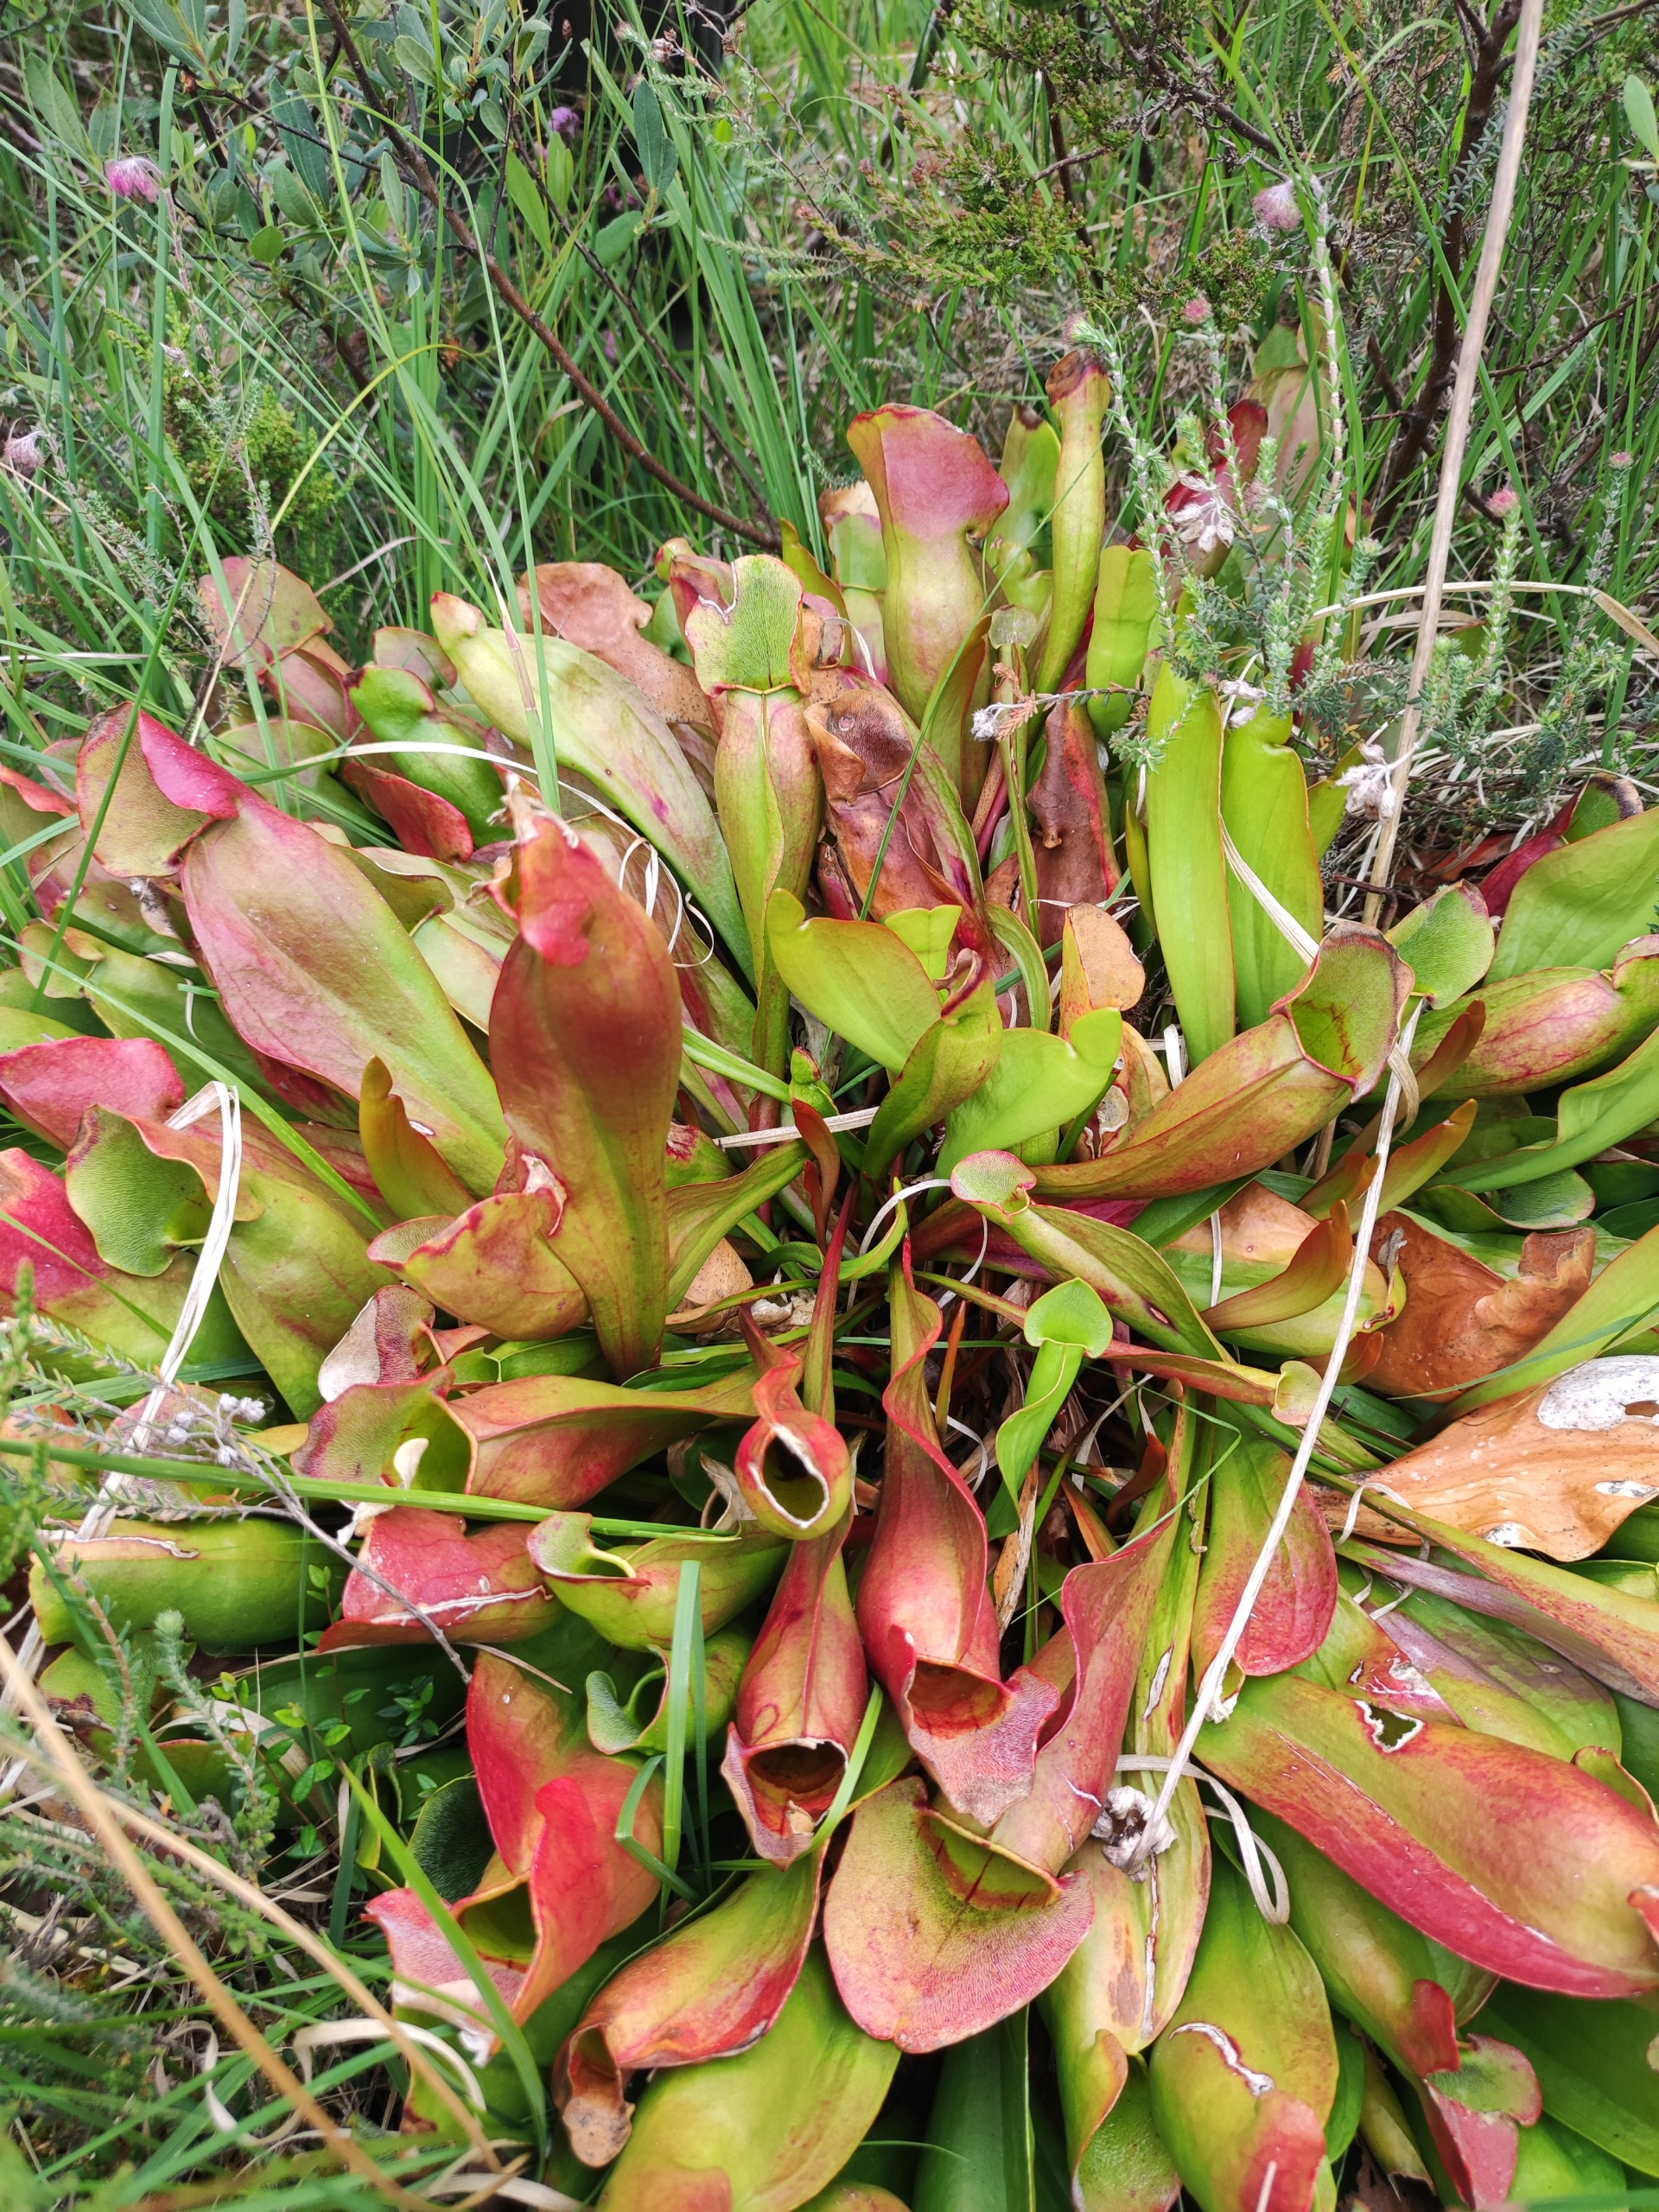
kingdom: Plantae
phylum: Tracheophyta
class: Magnoliopsida
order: Ericales
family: Sarraceniaceae
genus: Sarracenia
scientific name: Sarracenia purpurea
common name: Trompetblad
